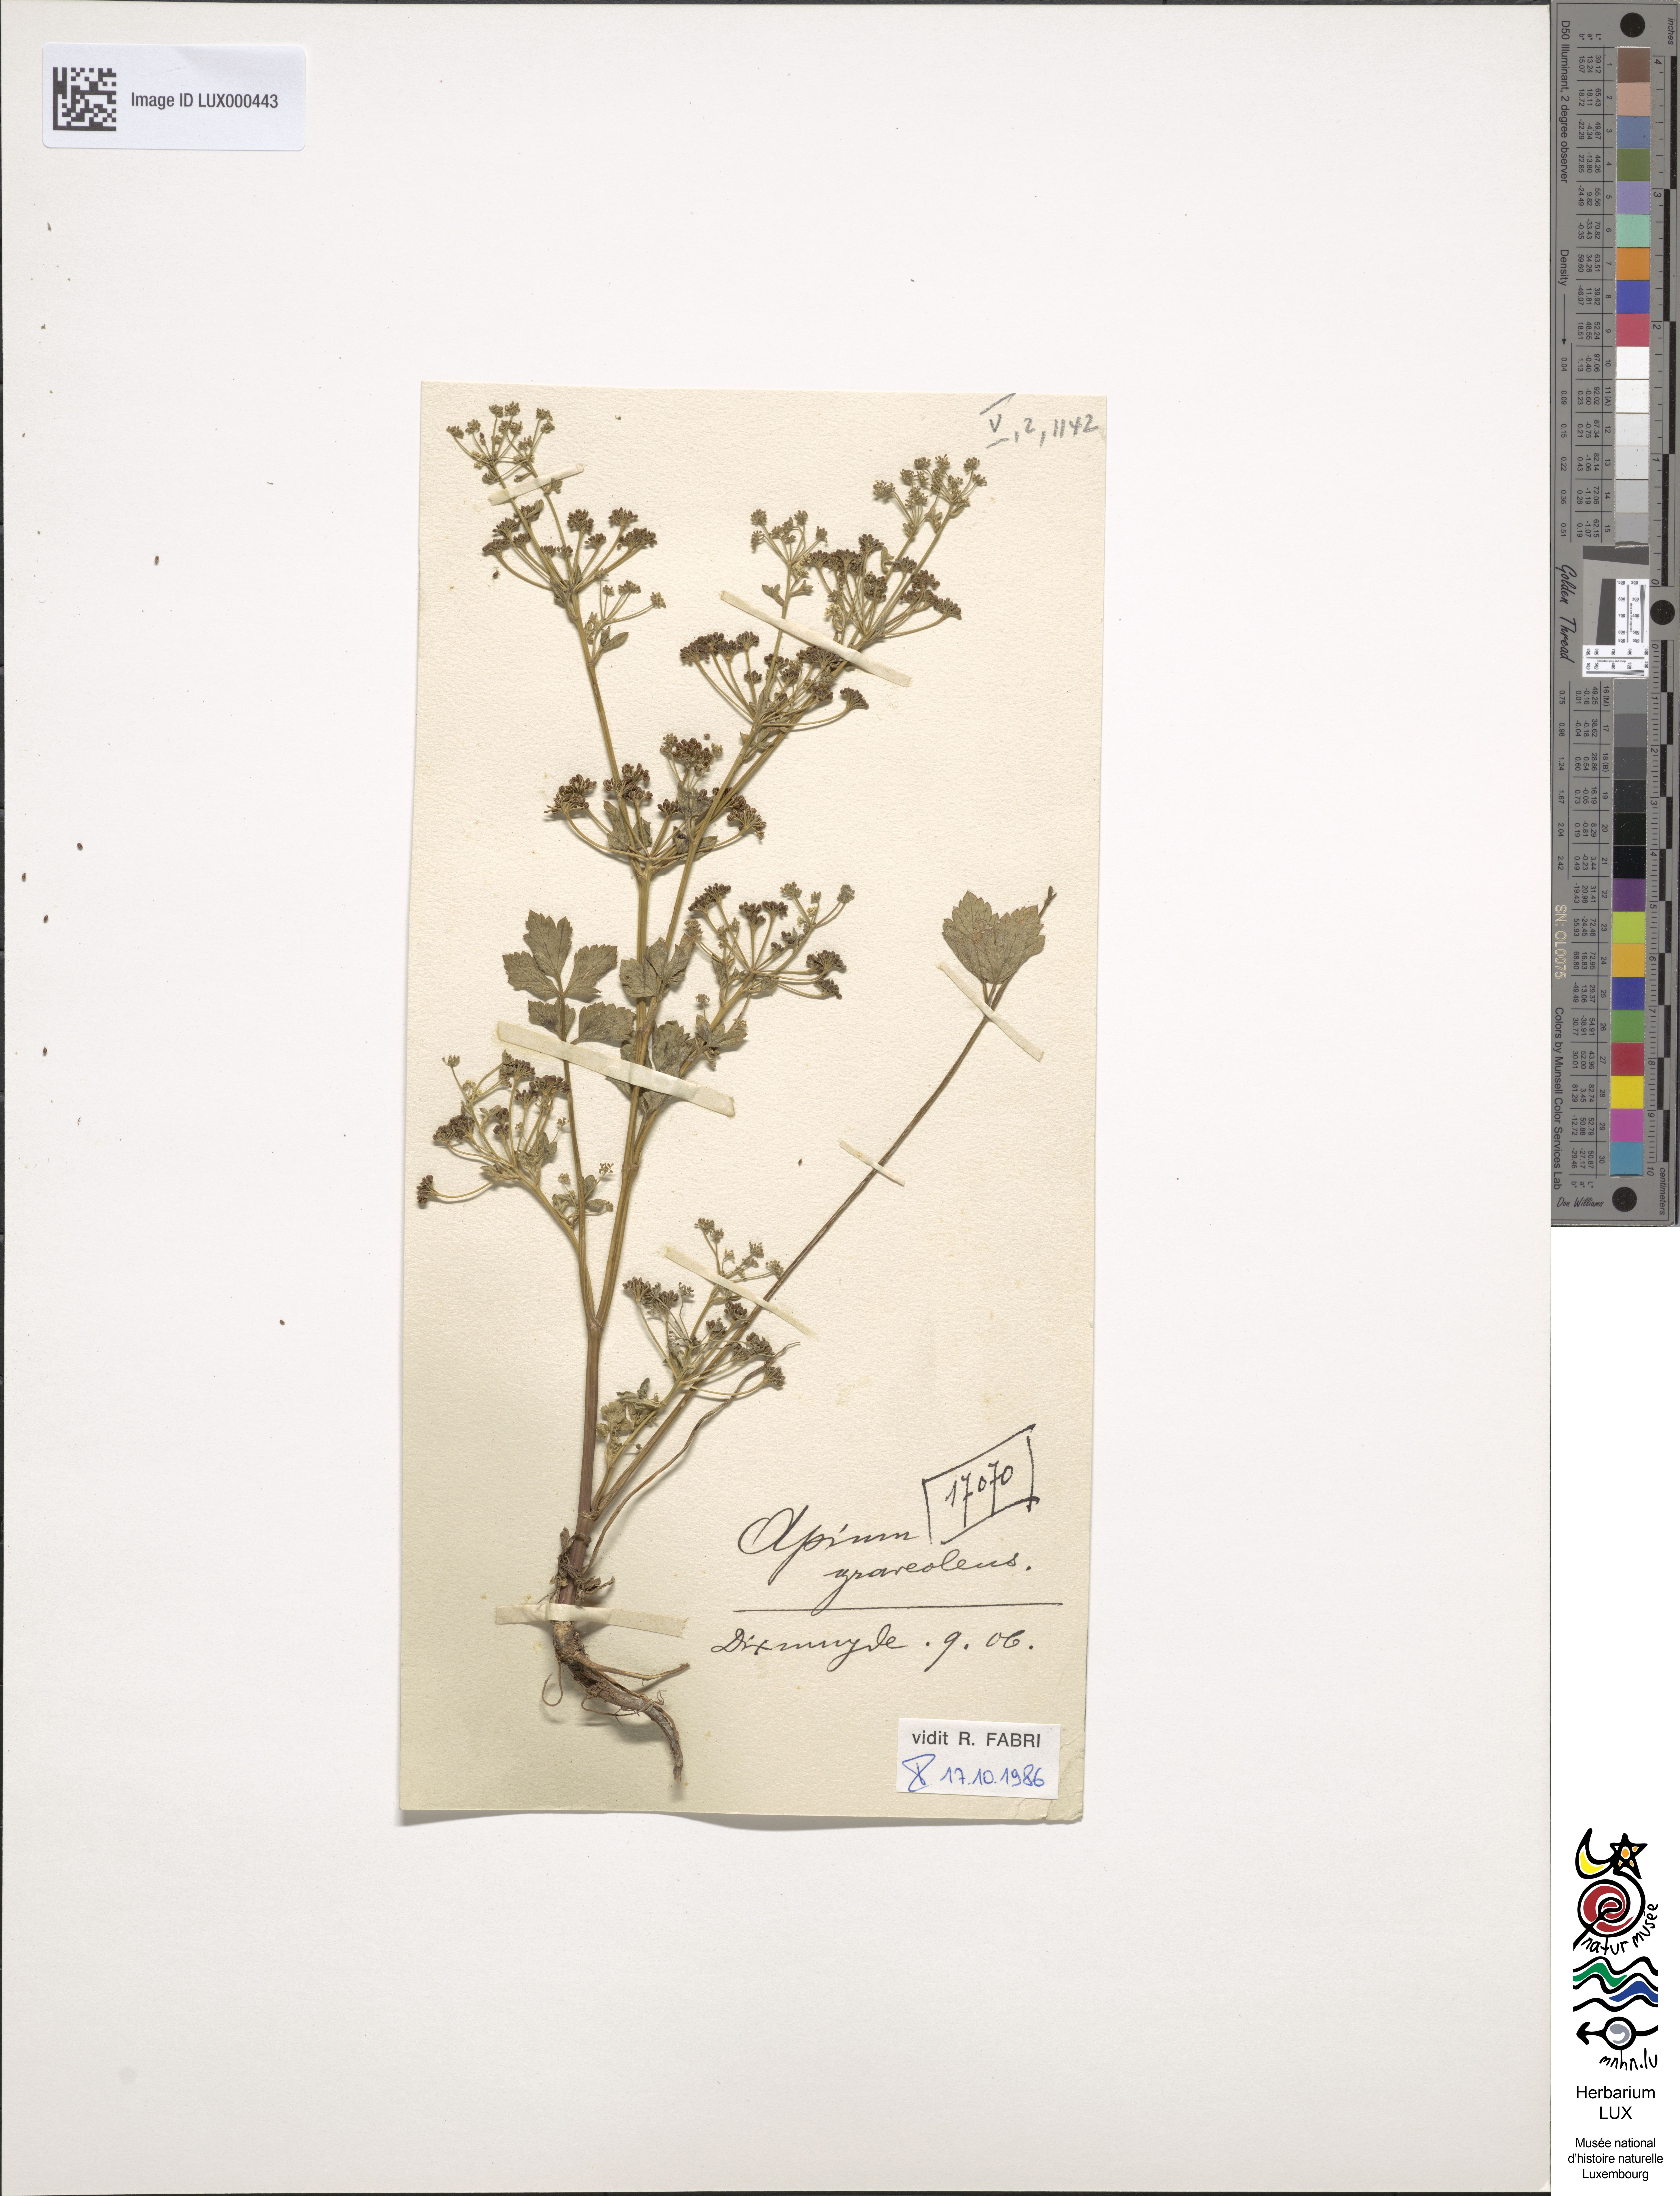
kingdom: Plantae
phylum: Tracheophyta
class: Magnoliopsida
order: Apiales
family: Apiaceae
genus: Apium
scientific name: Apium graveolens
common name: Wild celery
